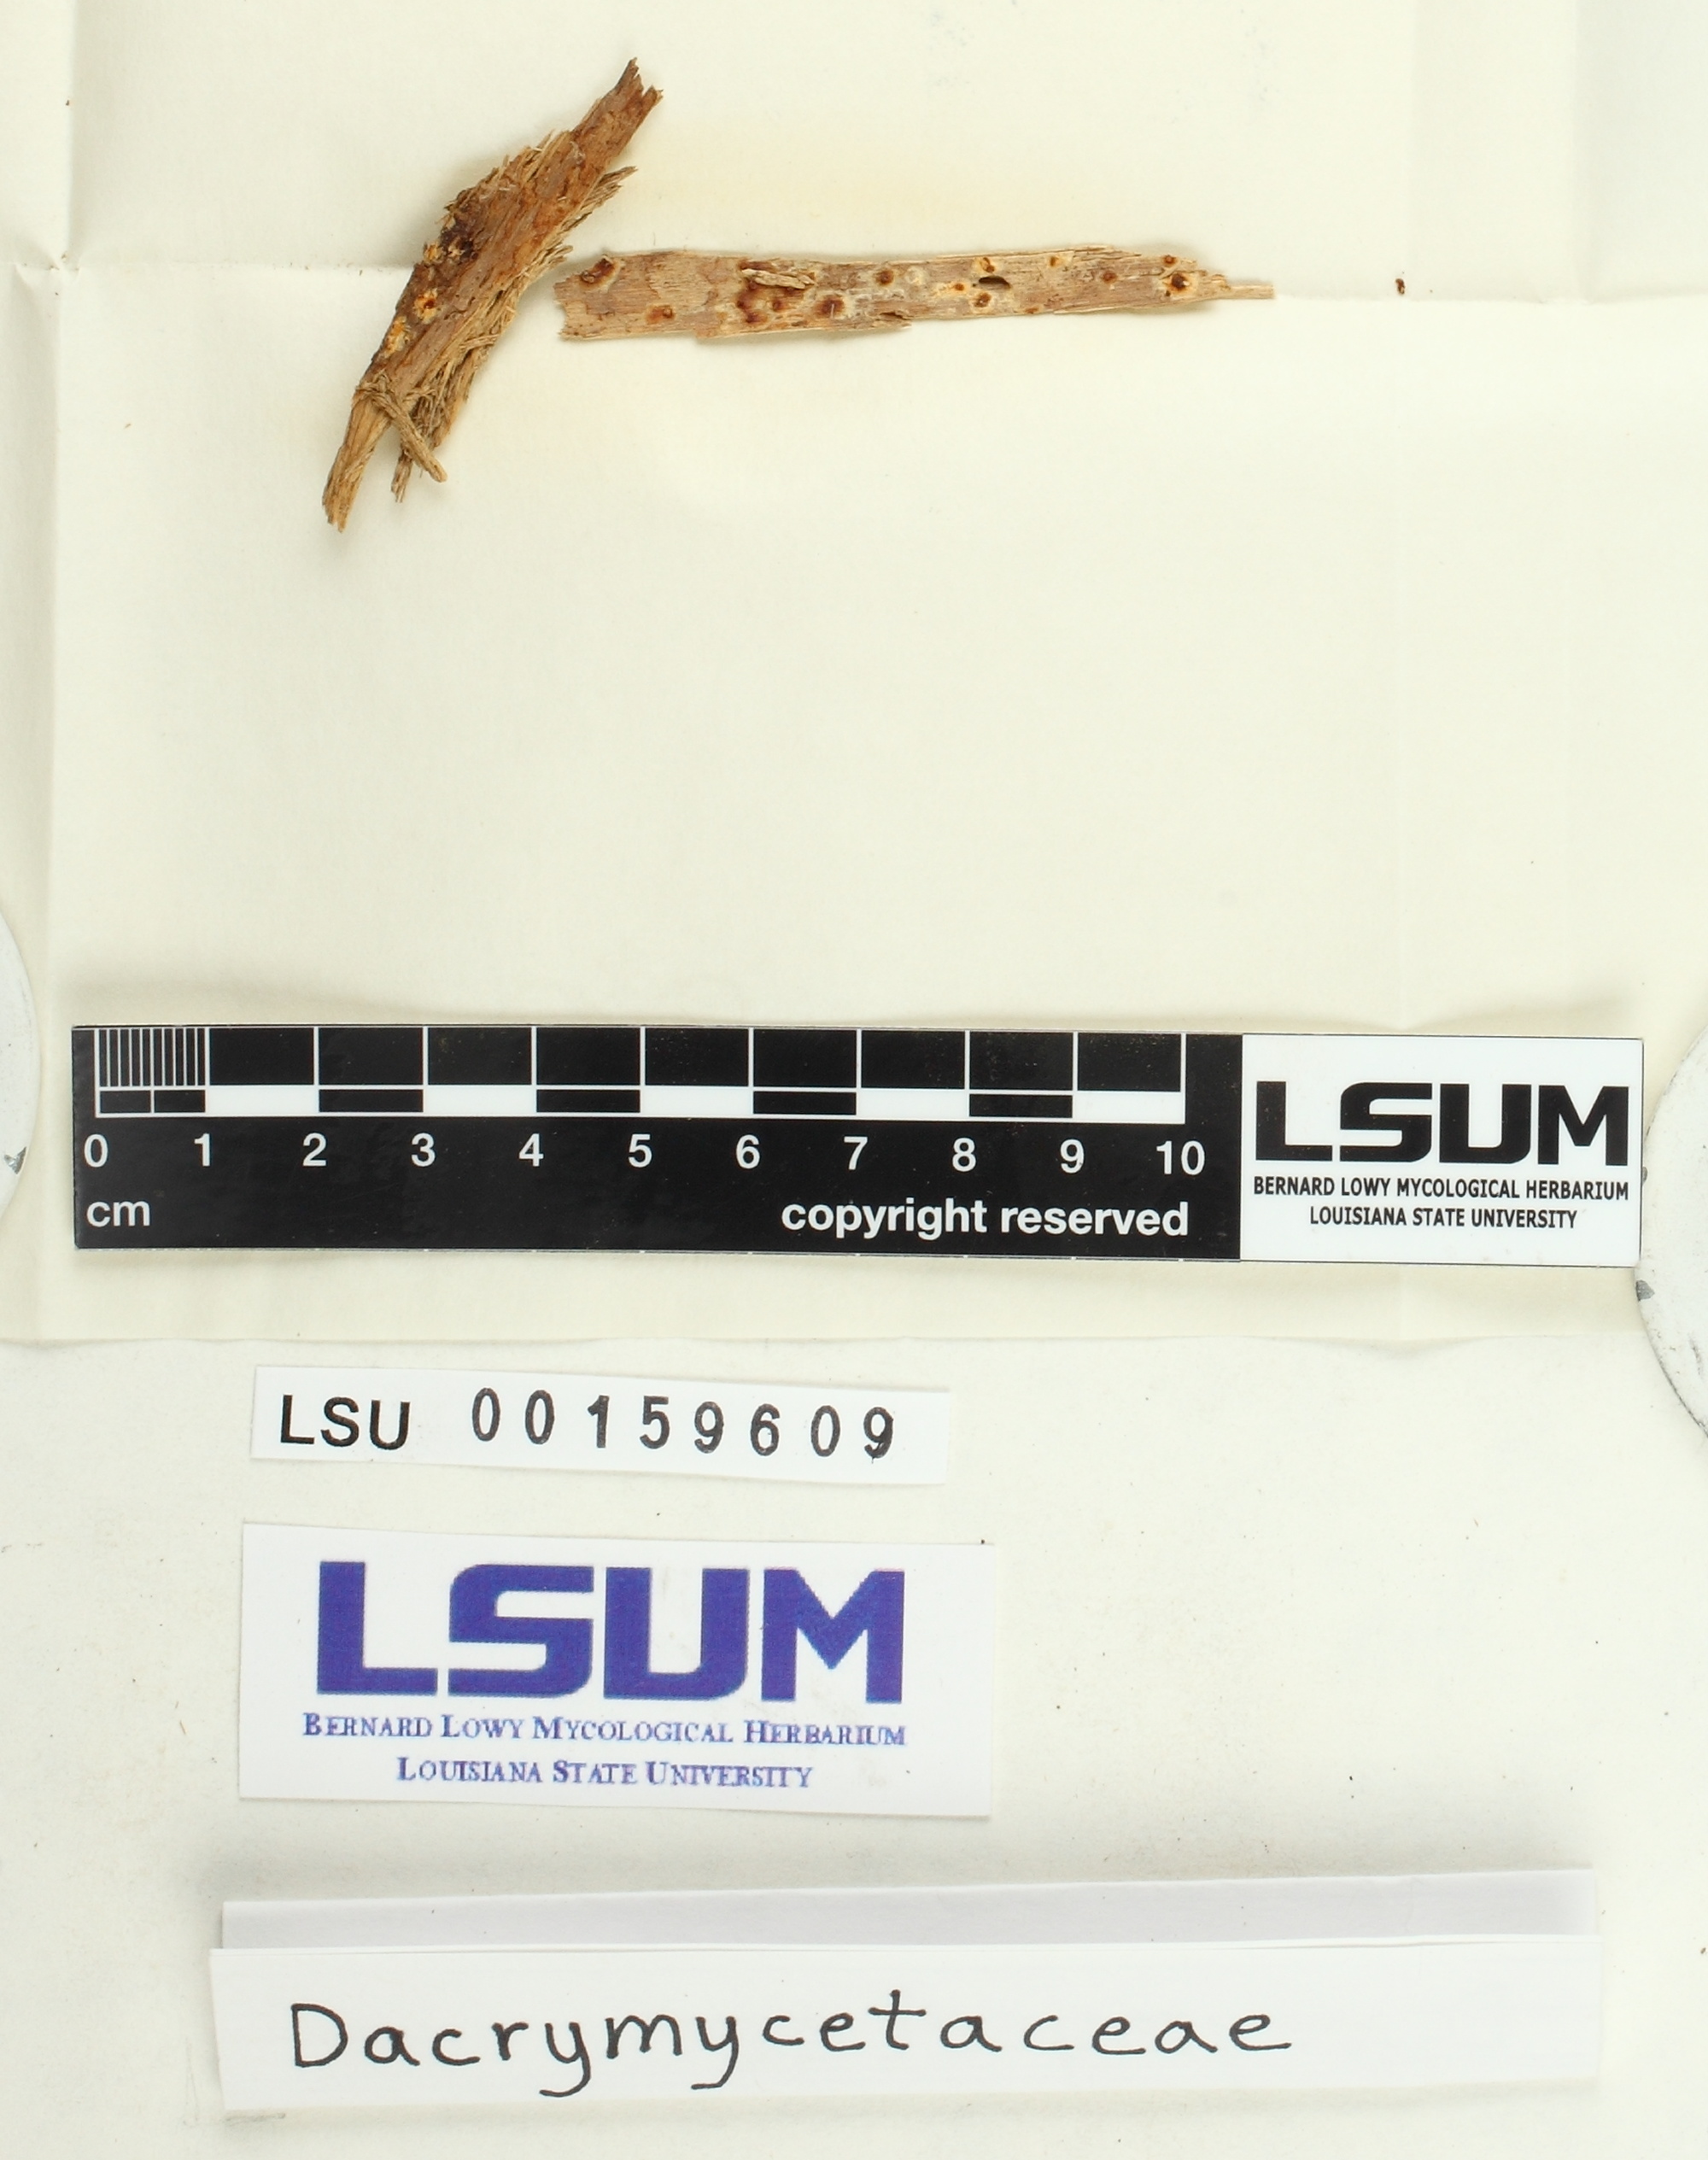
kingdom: Fungi
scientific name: Fungi
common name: Fungi
